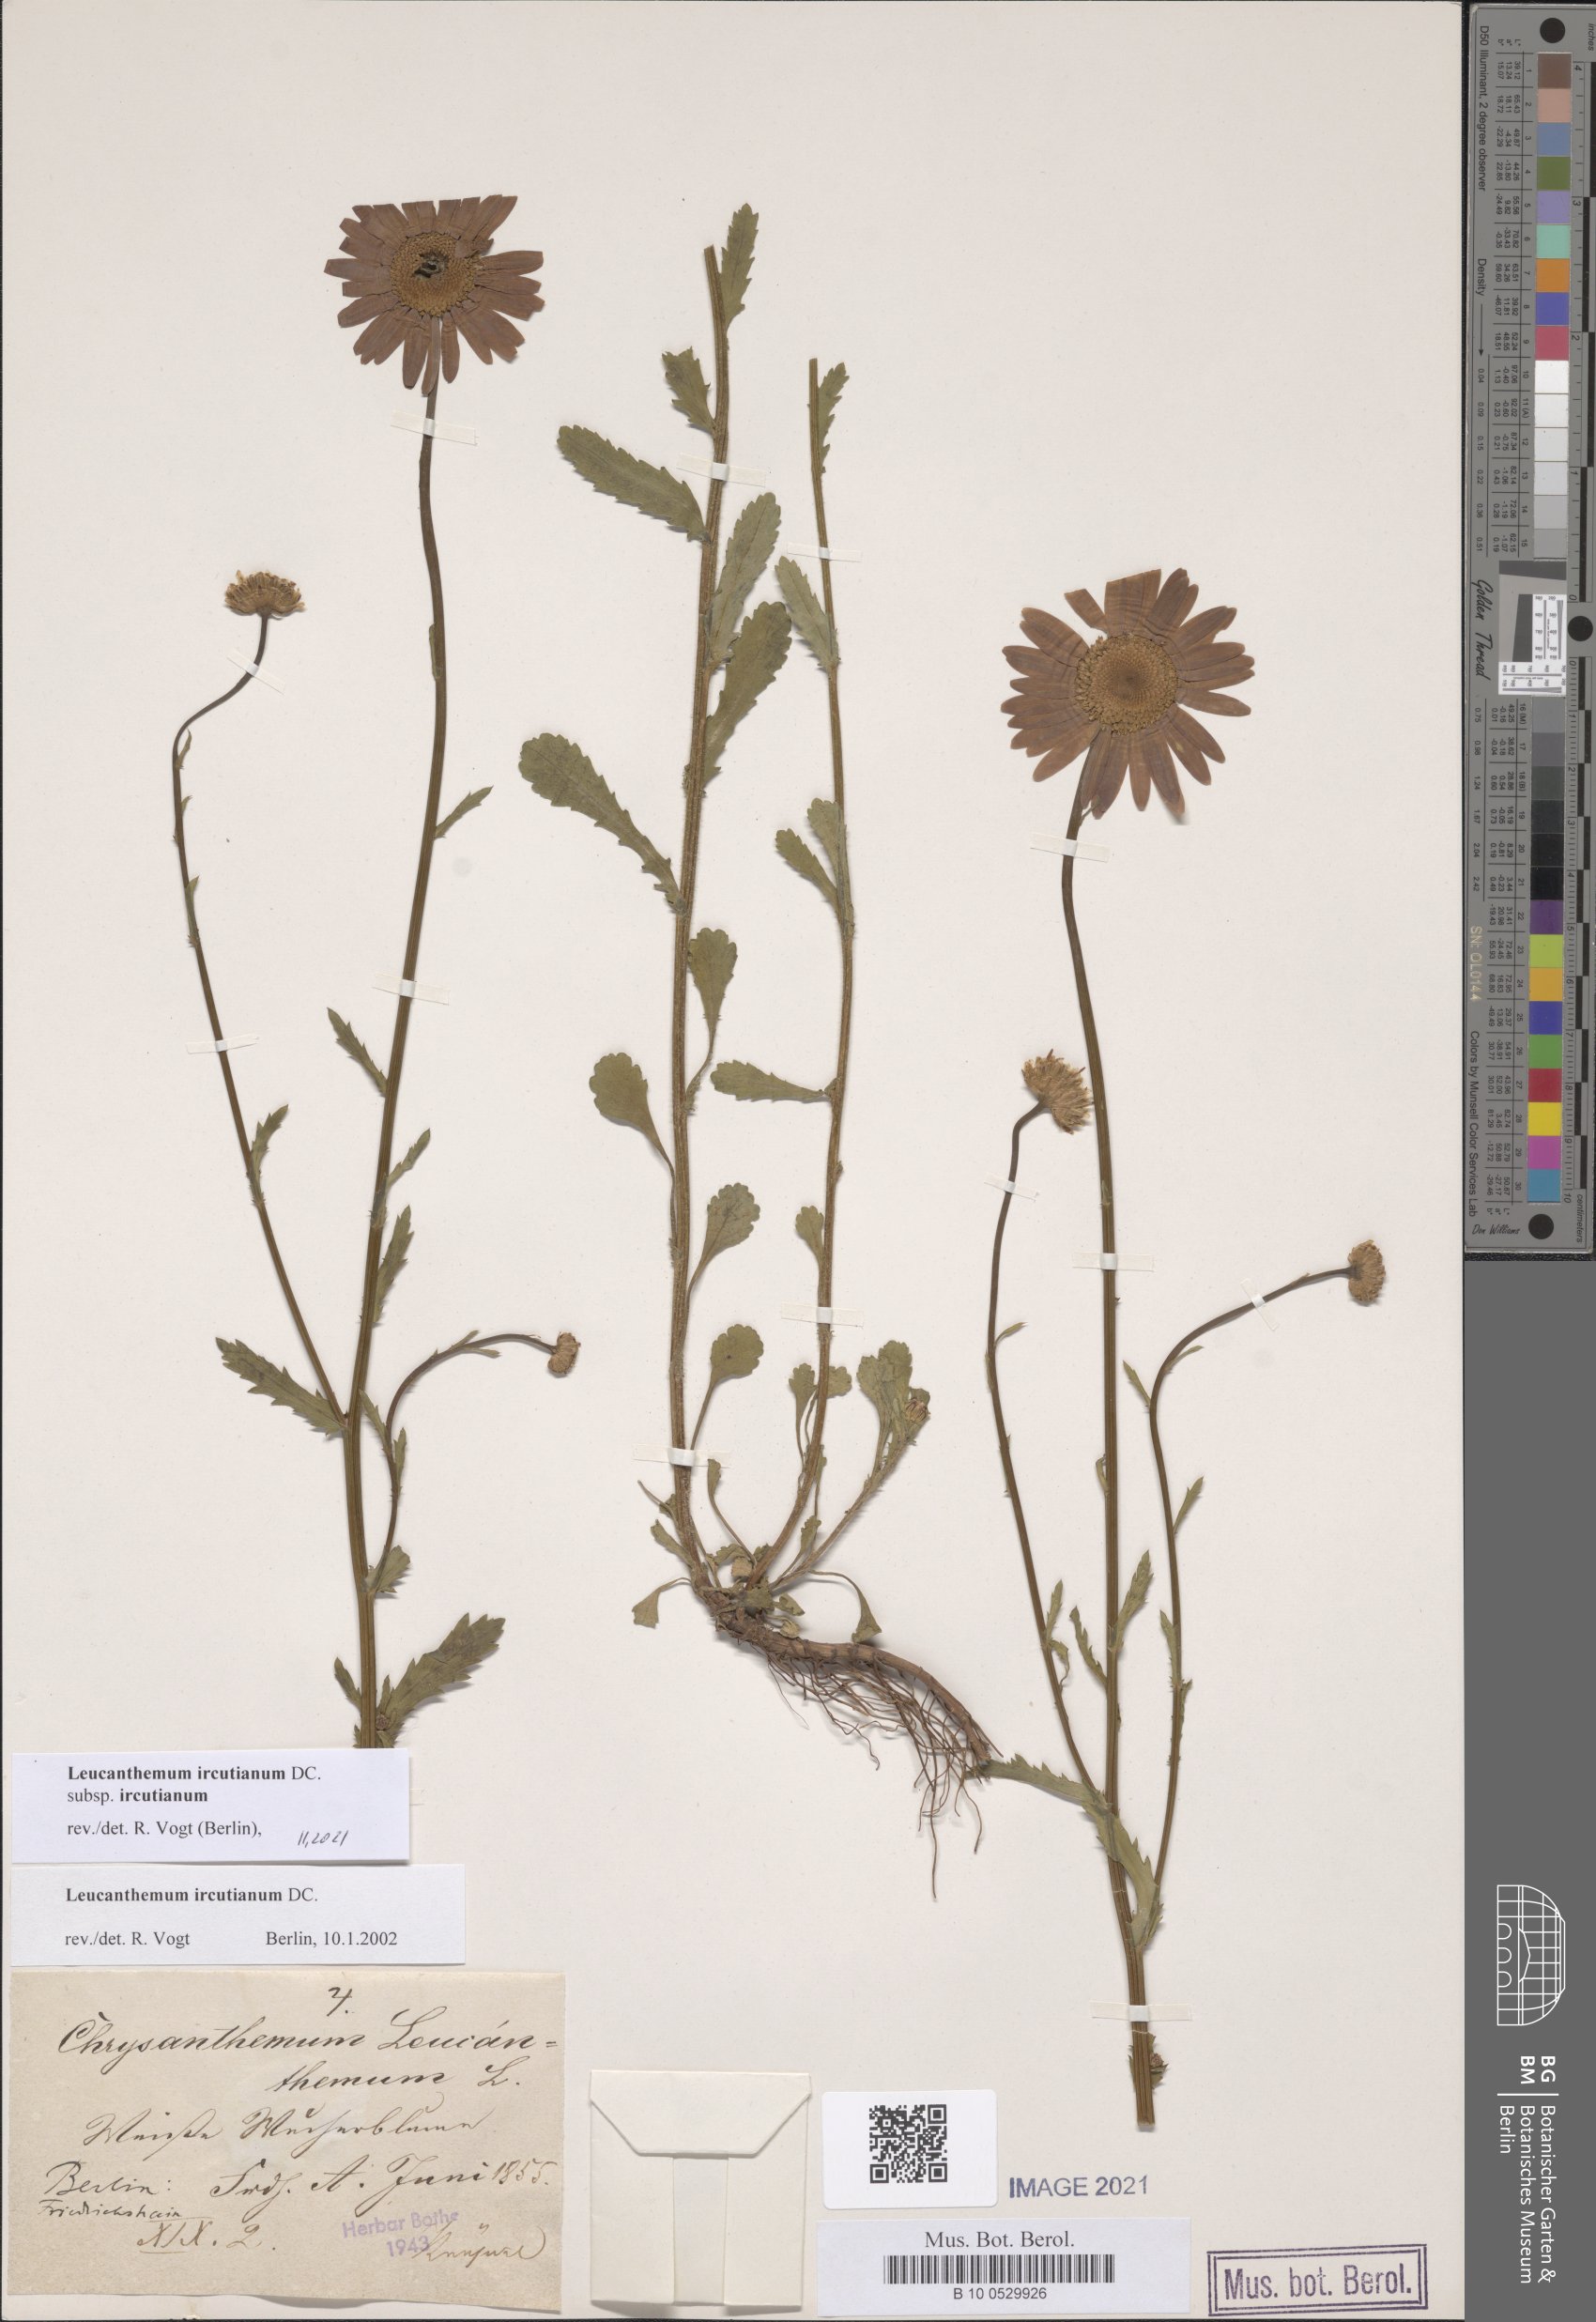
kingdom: Plantae
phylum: Tracheophyta
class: Magnoliopsida
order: Asterales
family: Asteraceae
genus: Leucanthemum
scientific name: Leucanthemum ircutianum
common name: Daisy
